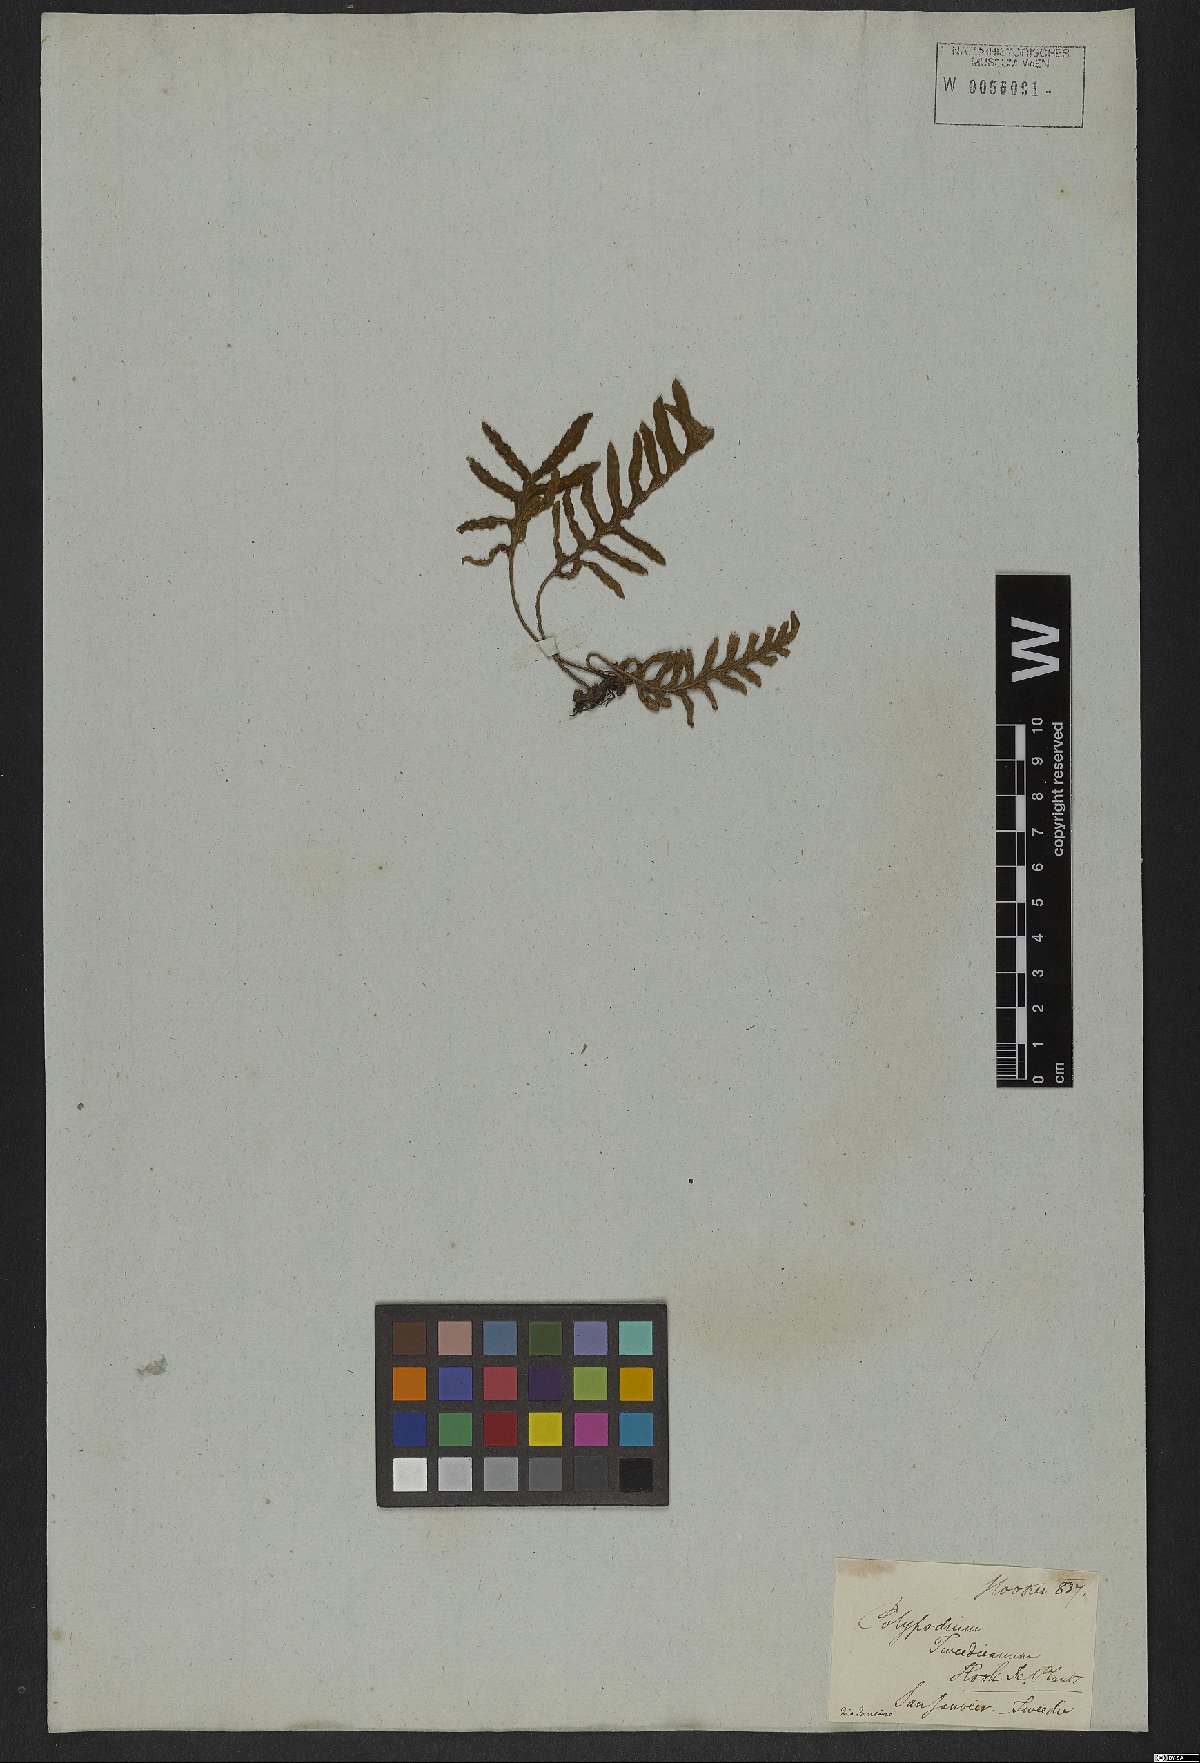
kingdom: Plantae
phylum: Tracheophyta
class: Polypodiopsida
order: Polypodiales
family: Polypodiaceae
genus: Pleopeltis
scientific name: Pleopeltis tweediana
